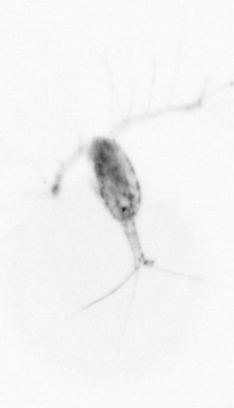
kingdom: Animalia
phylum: Arthropoda
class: Copepoda
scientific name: Copepoda
